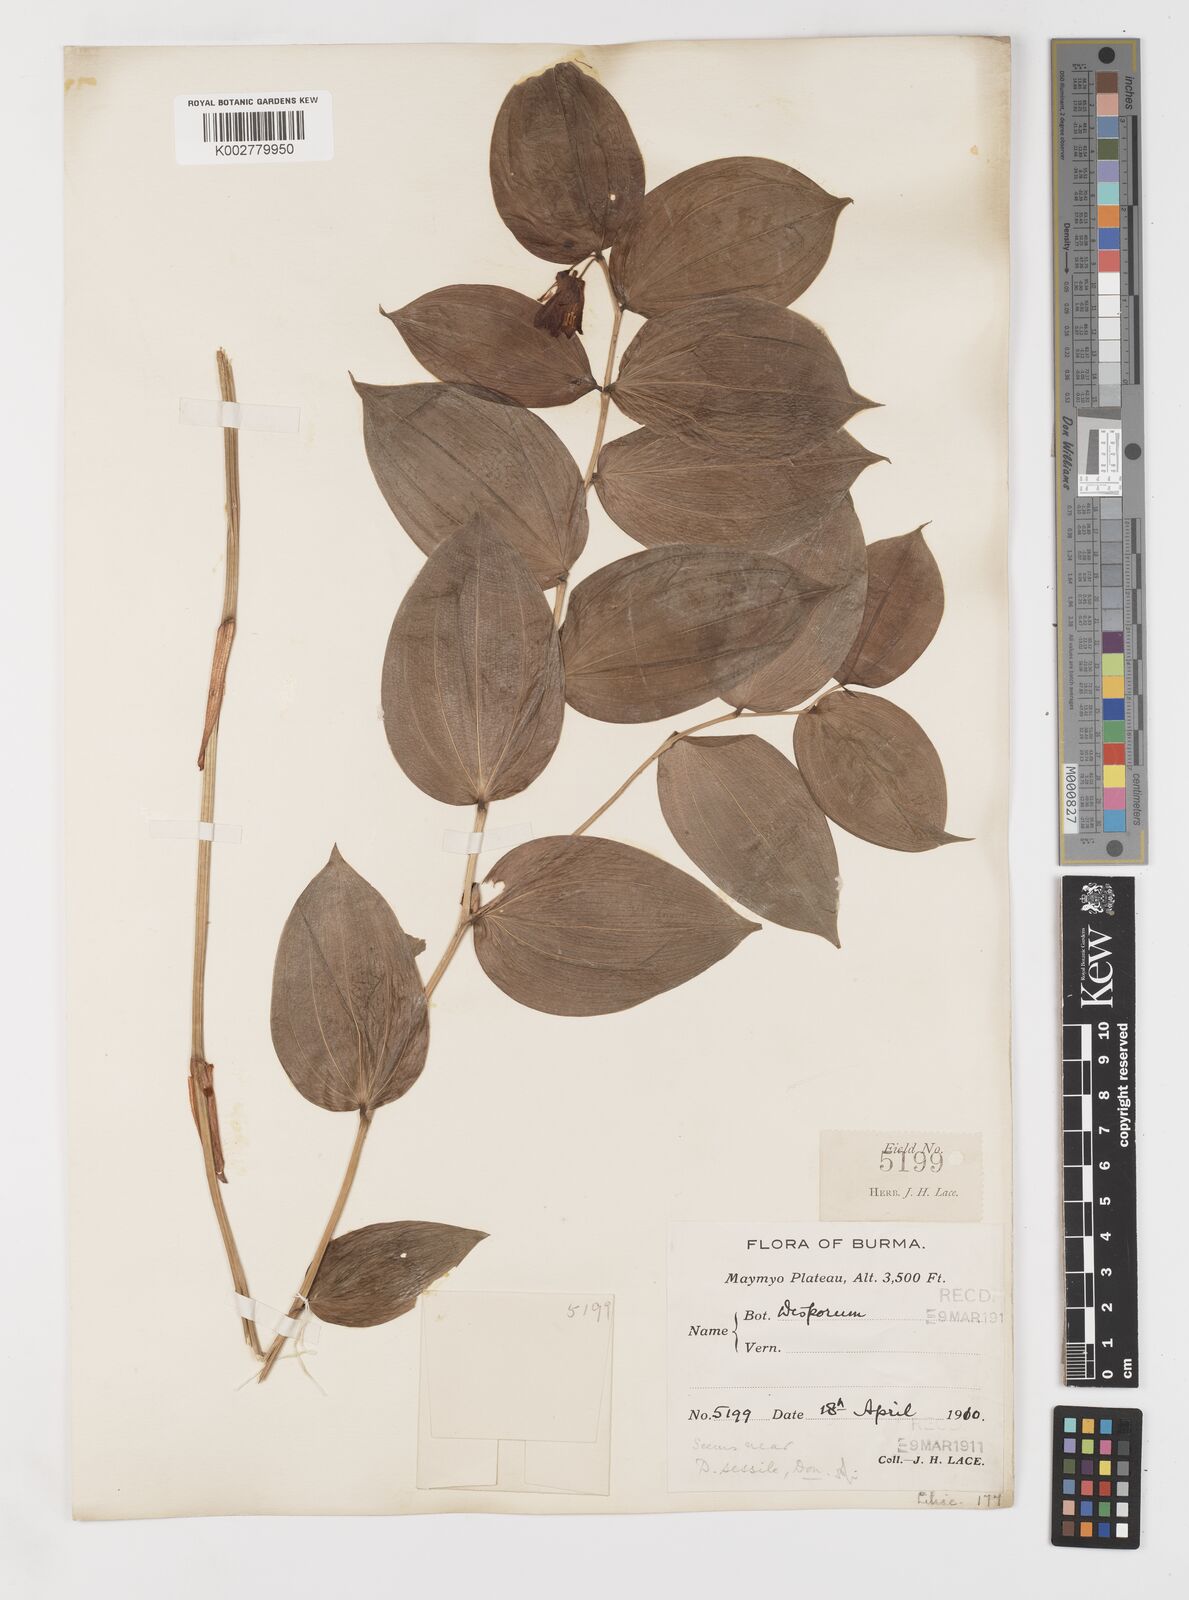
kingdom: Plantae
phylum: Tracheophyta
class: Liliopsida
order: Liliales
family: Colchicaceae
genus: Disporum
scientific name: Disporum cantoniense
